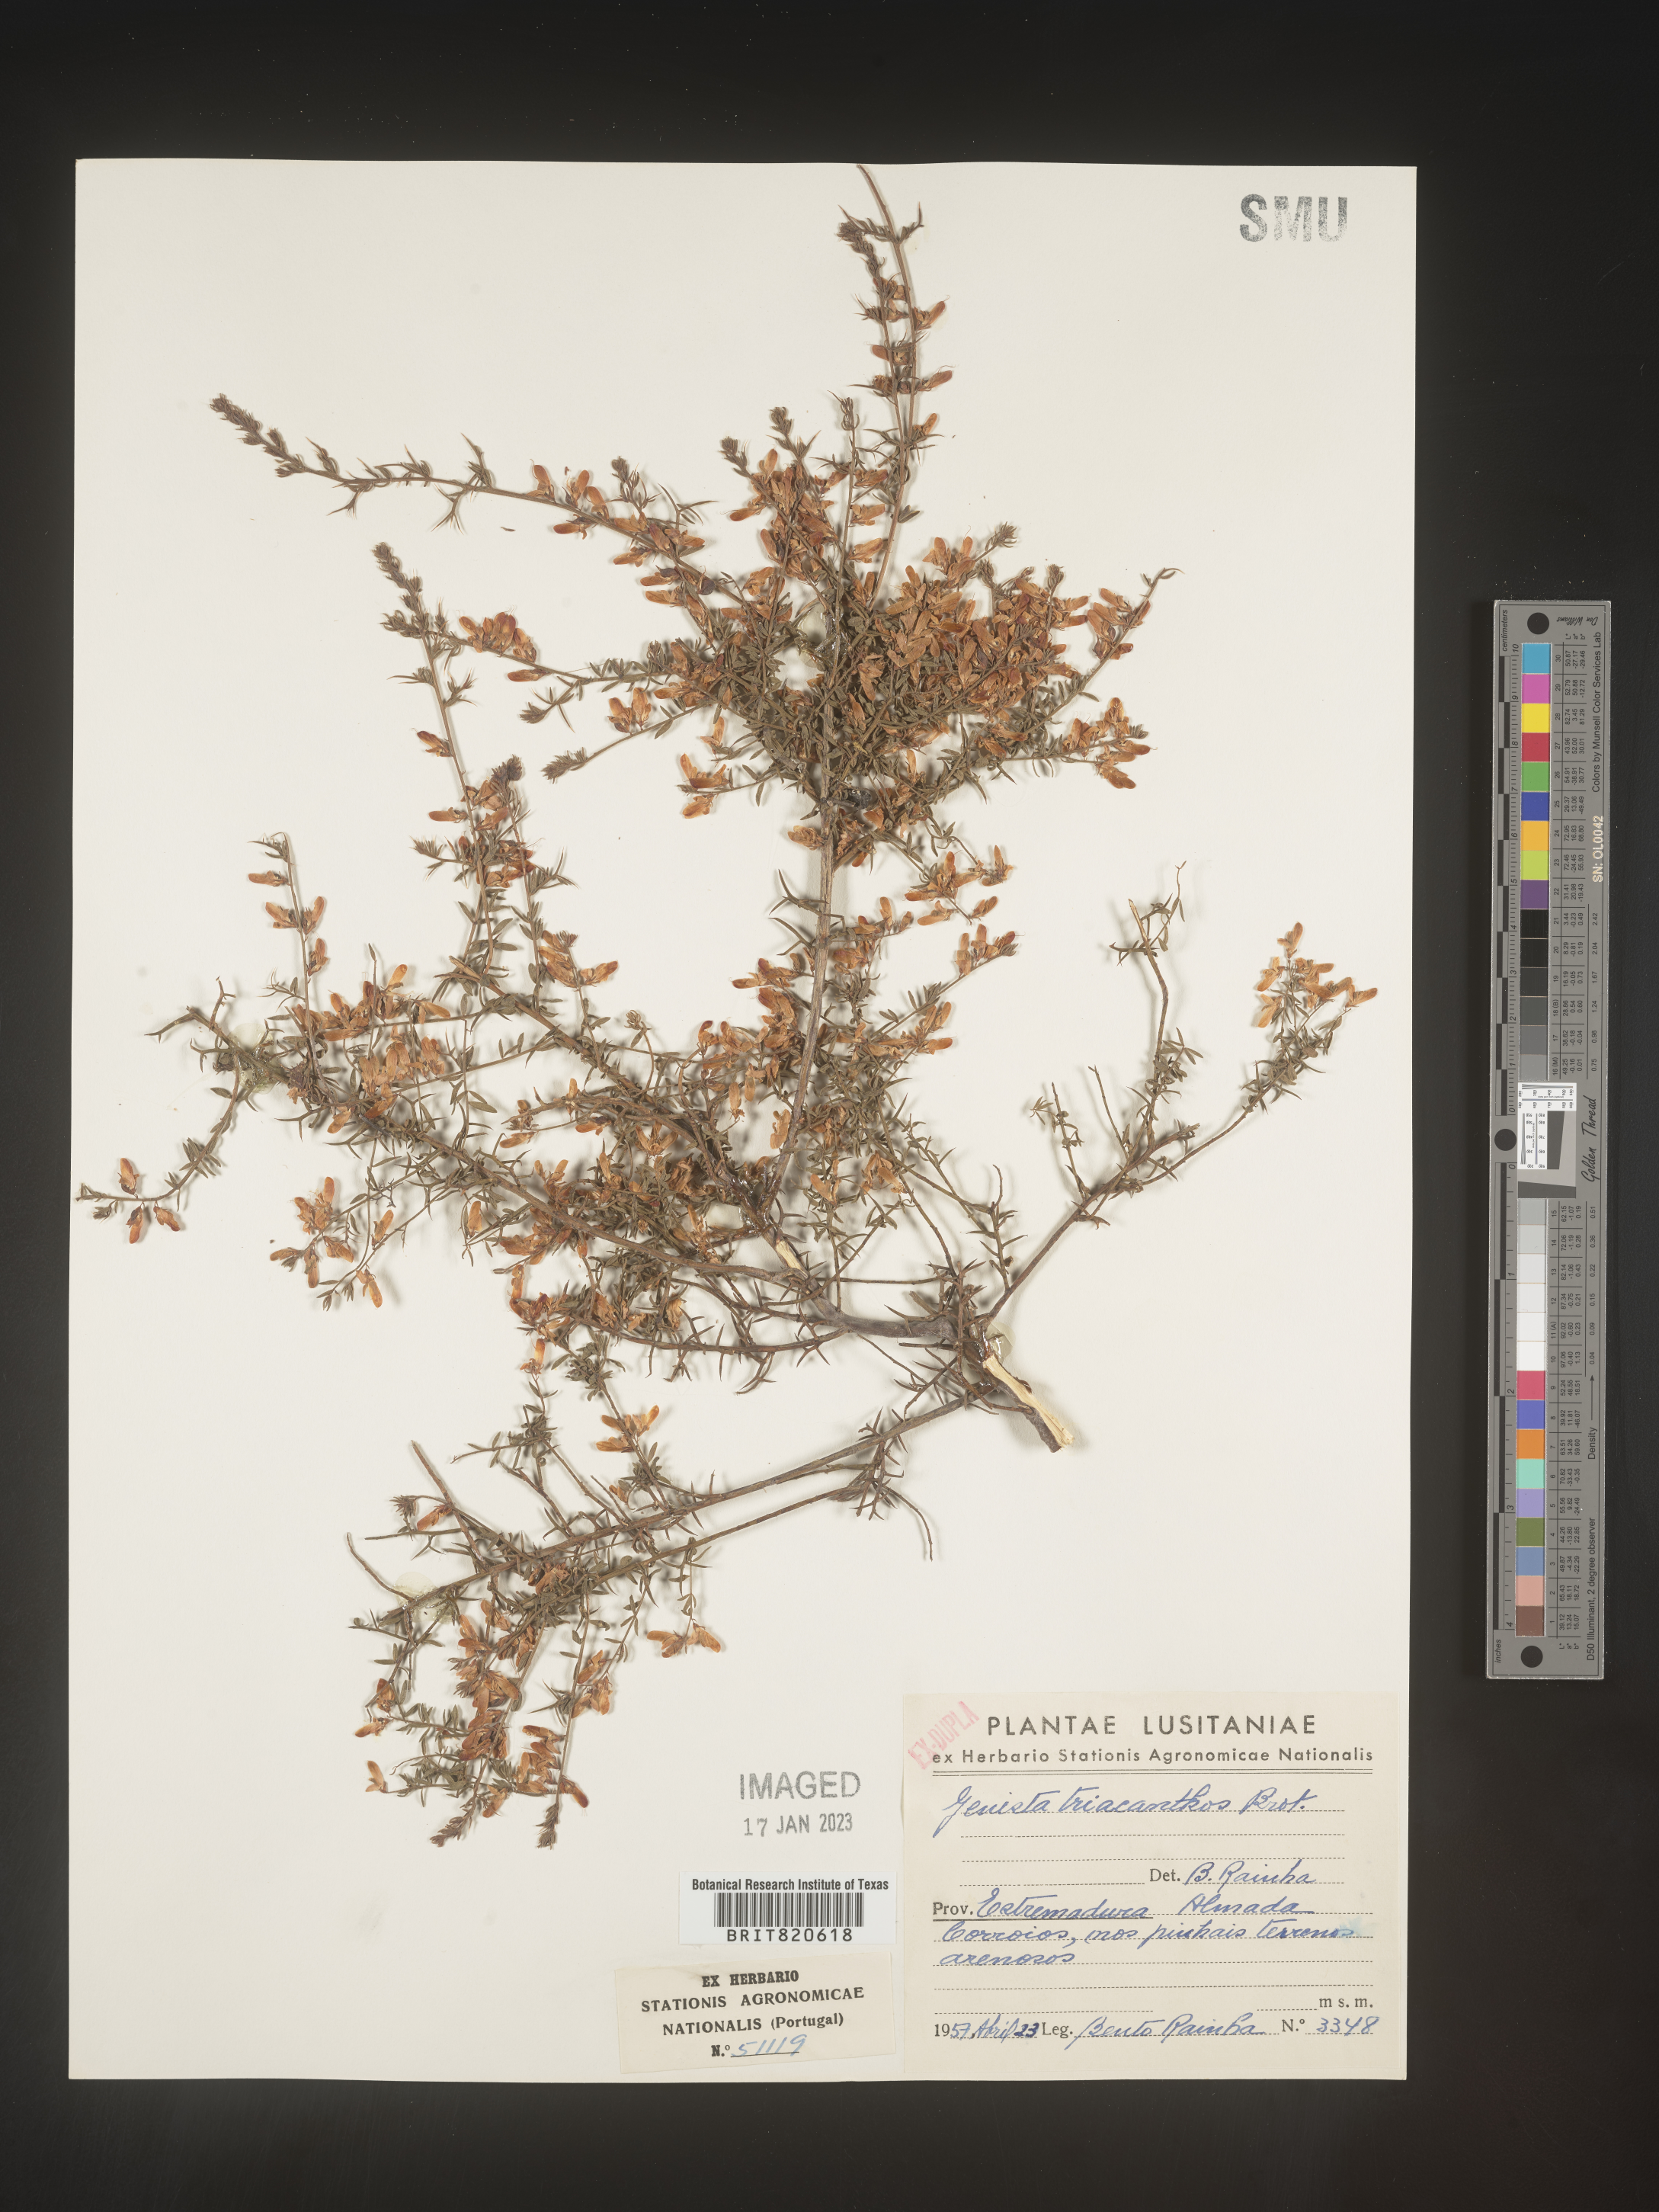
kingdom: Plantae
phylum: Tracheophyta
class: Magnoliopsida
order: Fabales
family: Fabaceae
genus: Genista
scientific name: Genista
